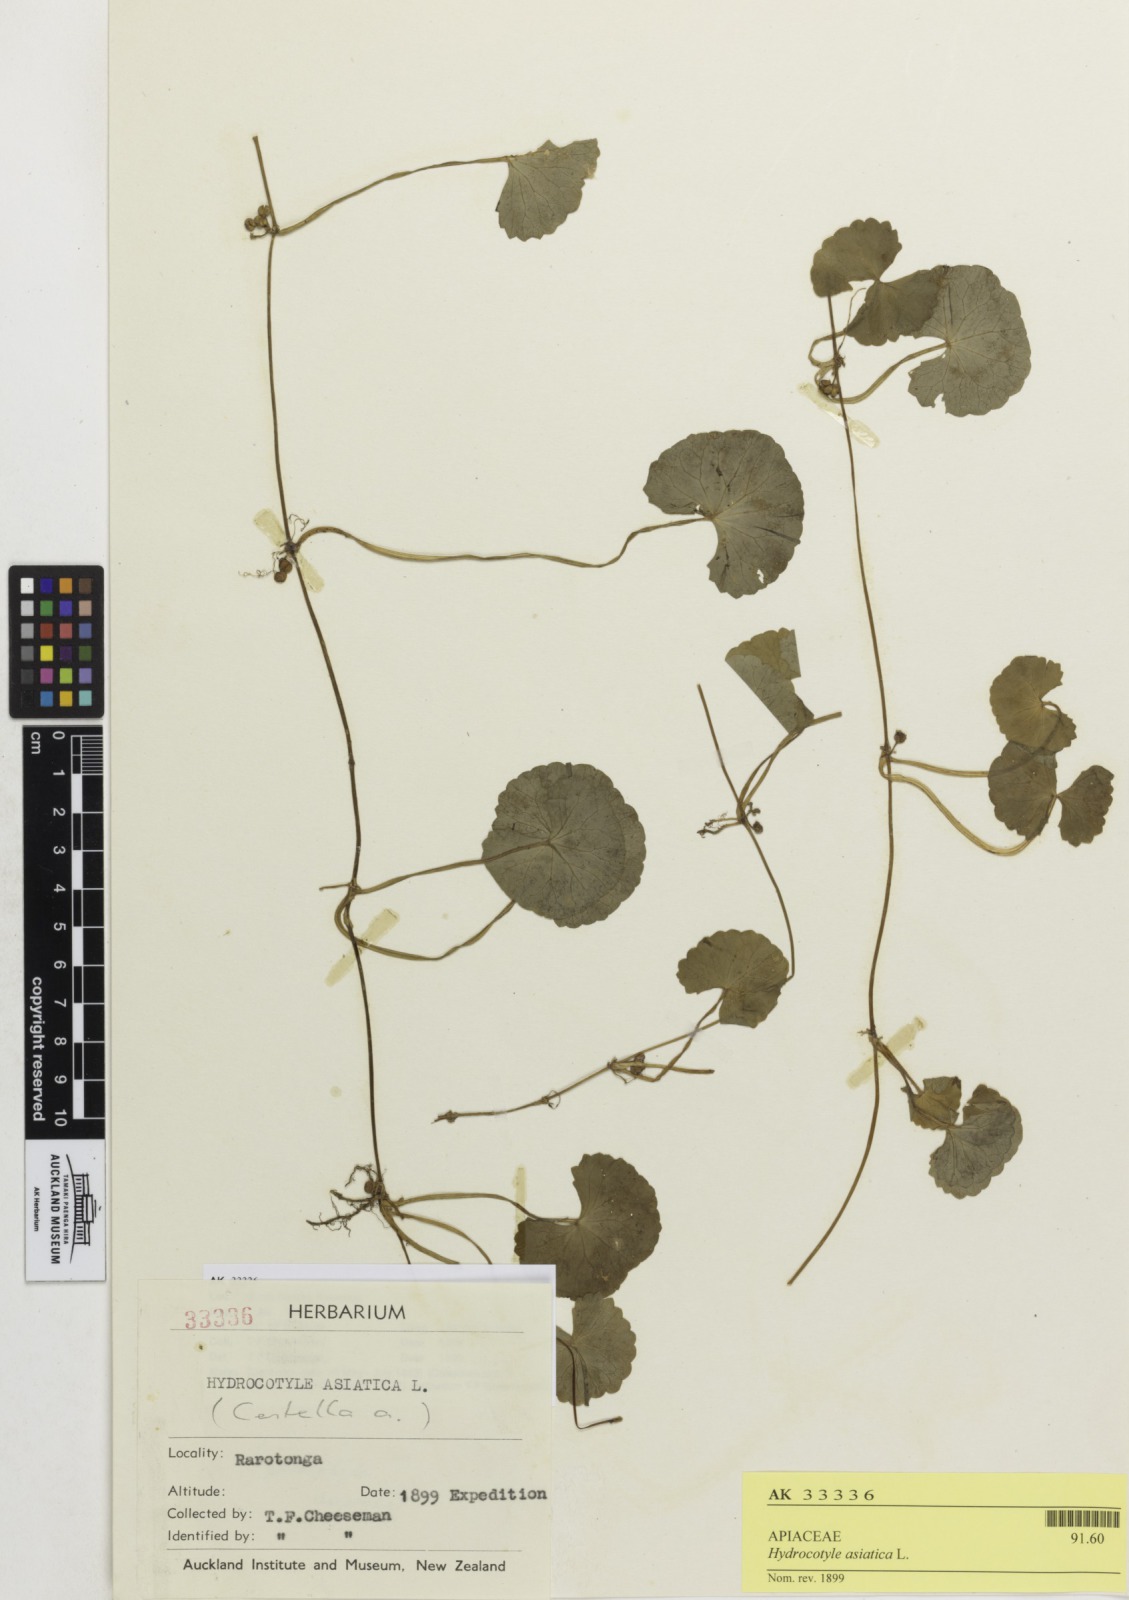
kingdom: Plantae
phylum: Tracheophyta
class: Magnoliopsida
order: Apiales
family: Apiaceae
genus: Centella
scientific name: Centella asiatica
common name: Spadeleaf
